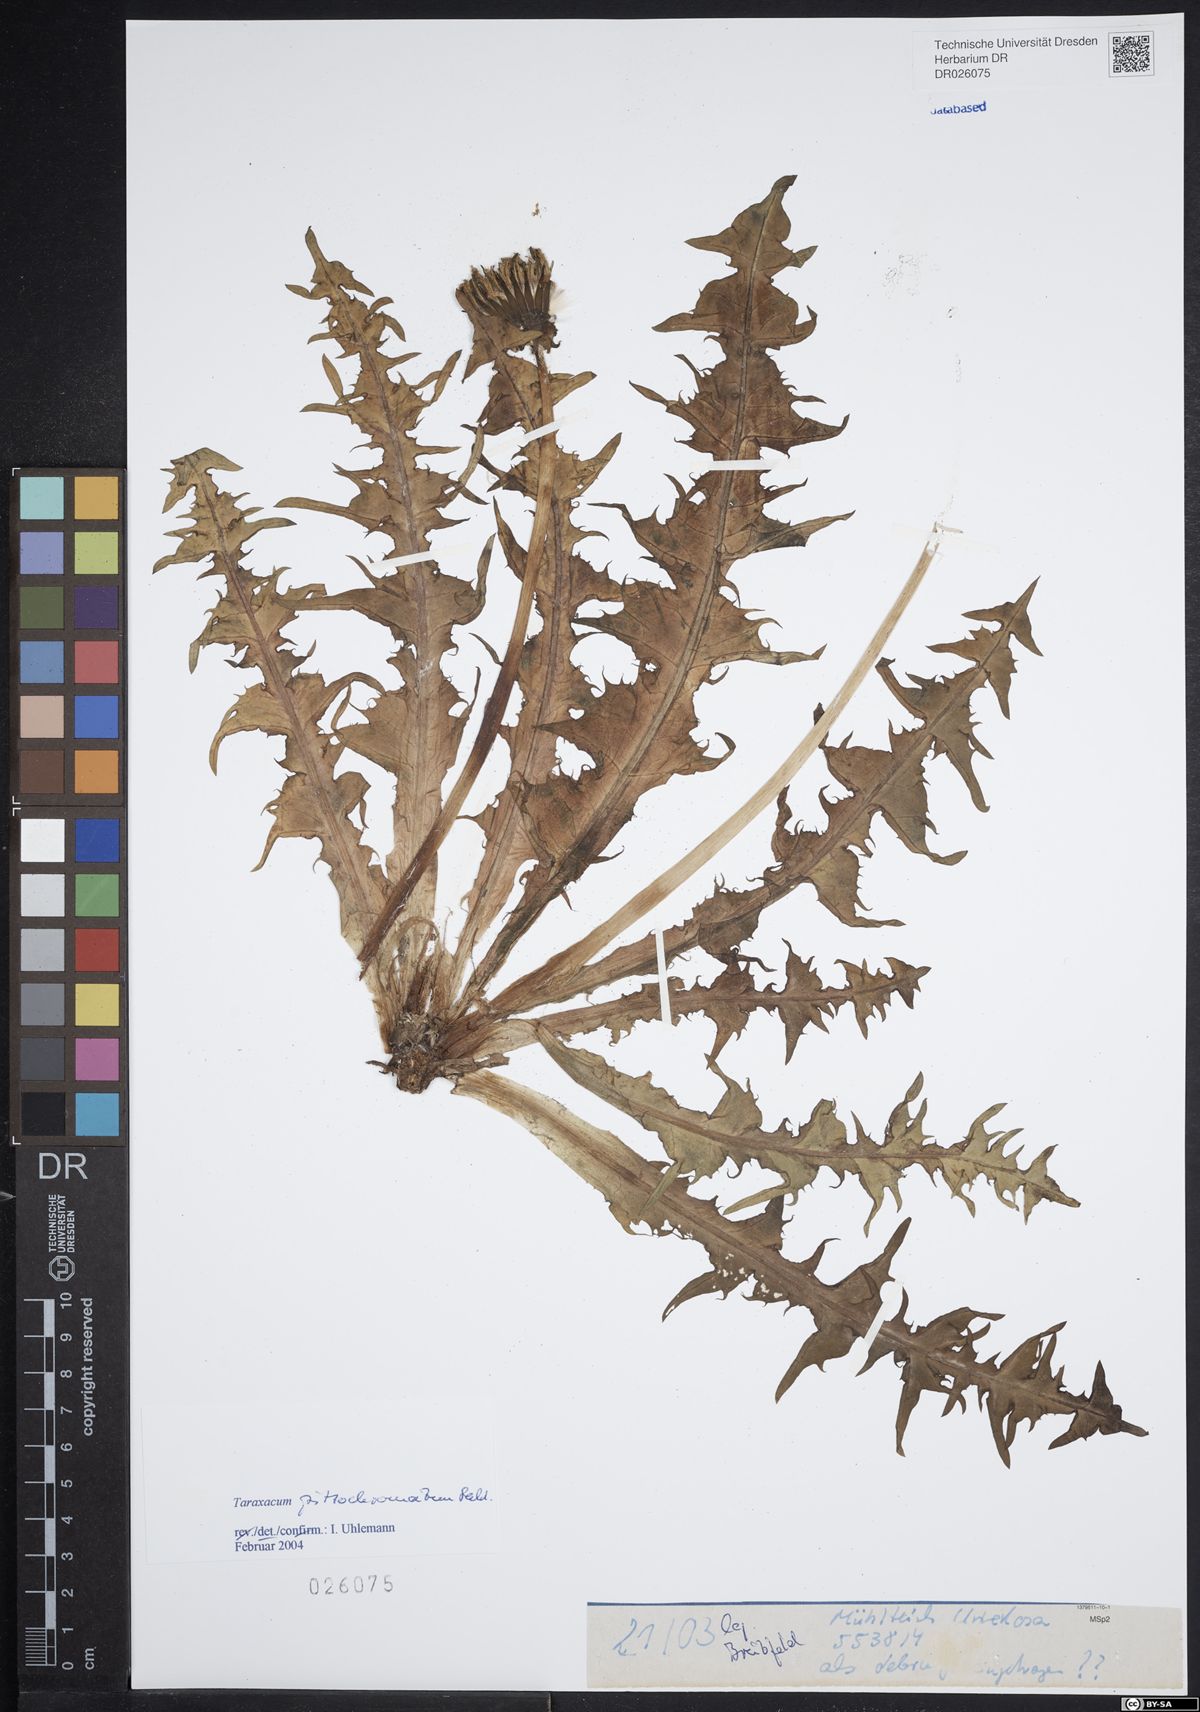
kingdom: Plantae
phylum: Tracheophyta
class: Magnoliopsida
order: Asterales
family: Asteraceae
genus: Taraxacum
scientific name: Taraxacum pittochromatum
